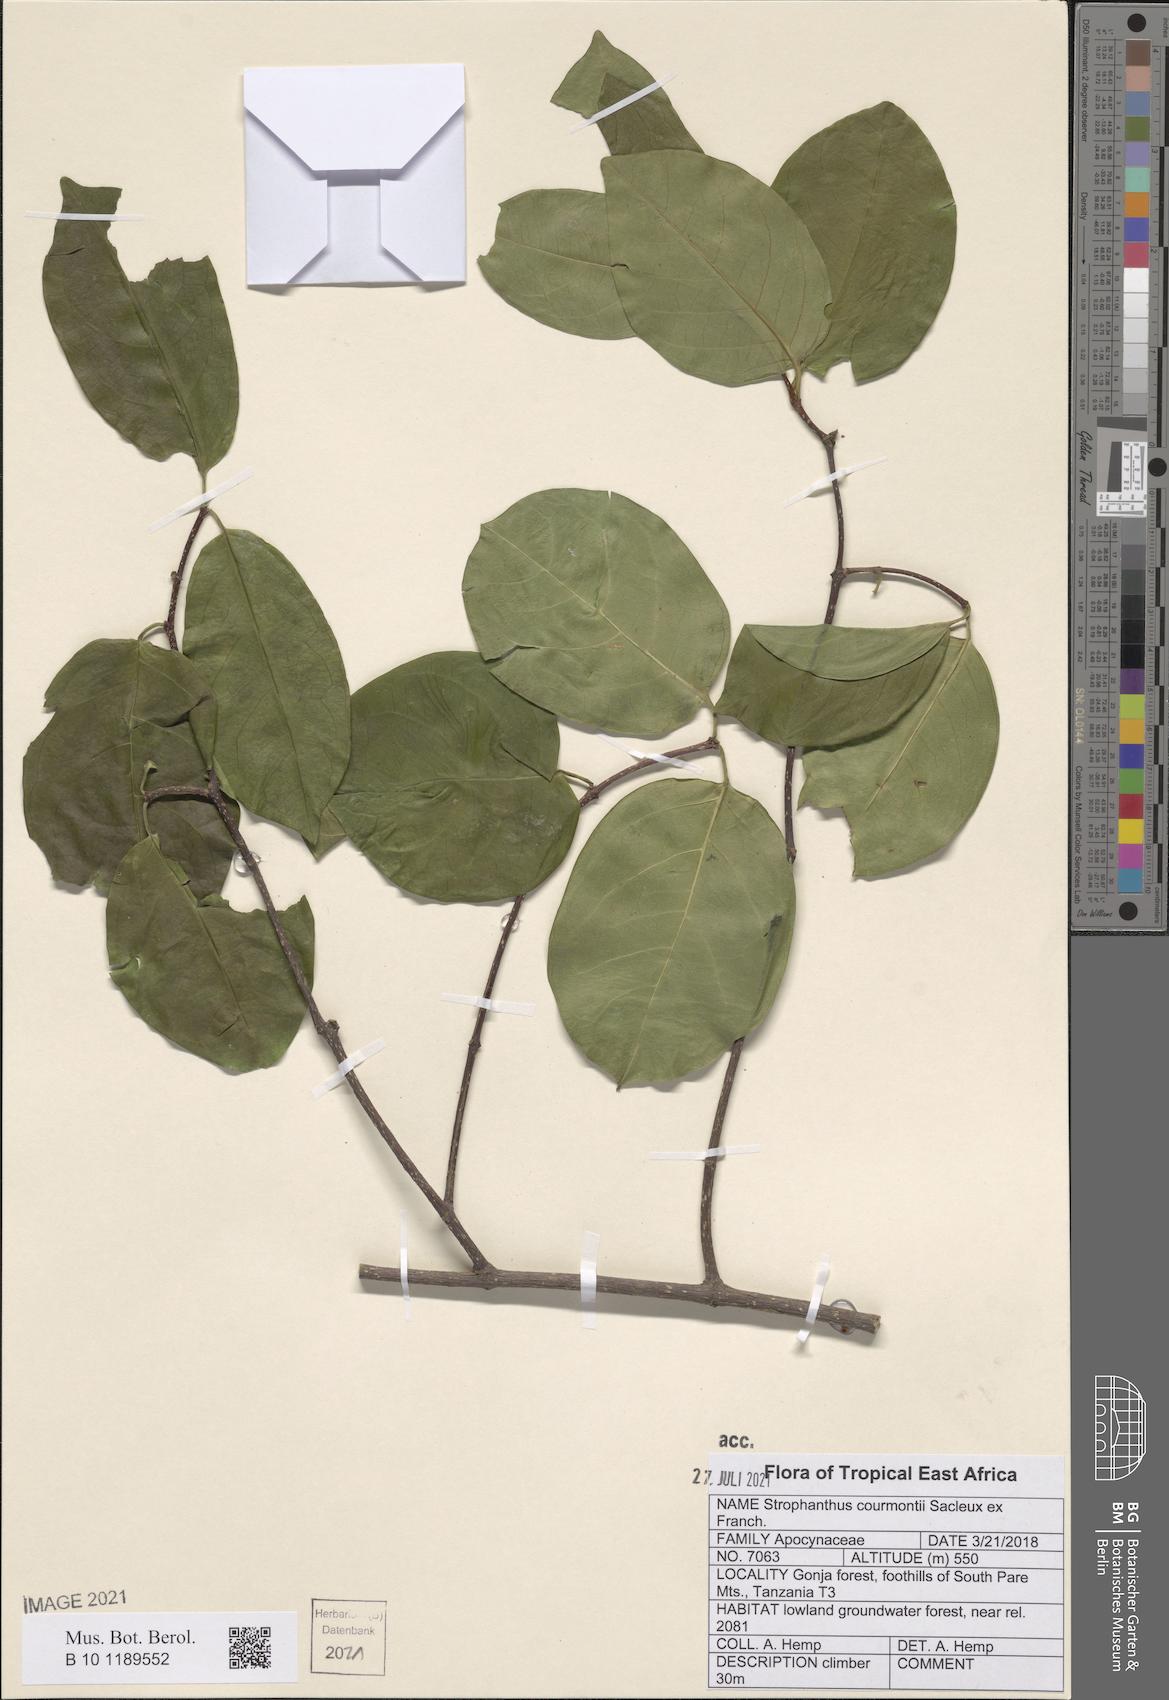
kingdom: Plantae
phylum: Tracheophyta
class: Magnoliopsida
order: Gentianales
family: Apocynaceae
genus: Strophanthus
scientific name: Strophanthus courmontii
